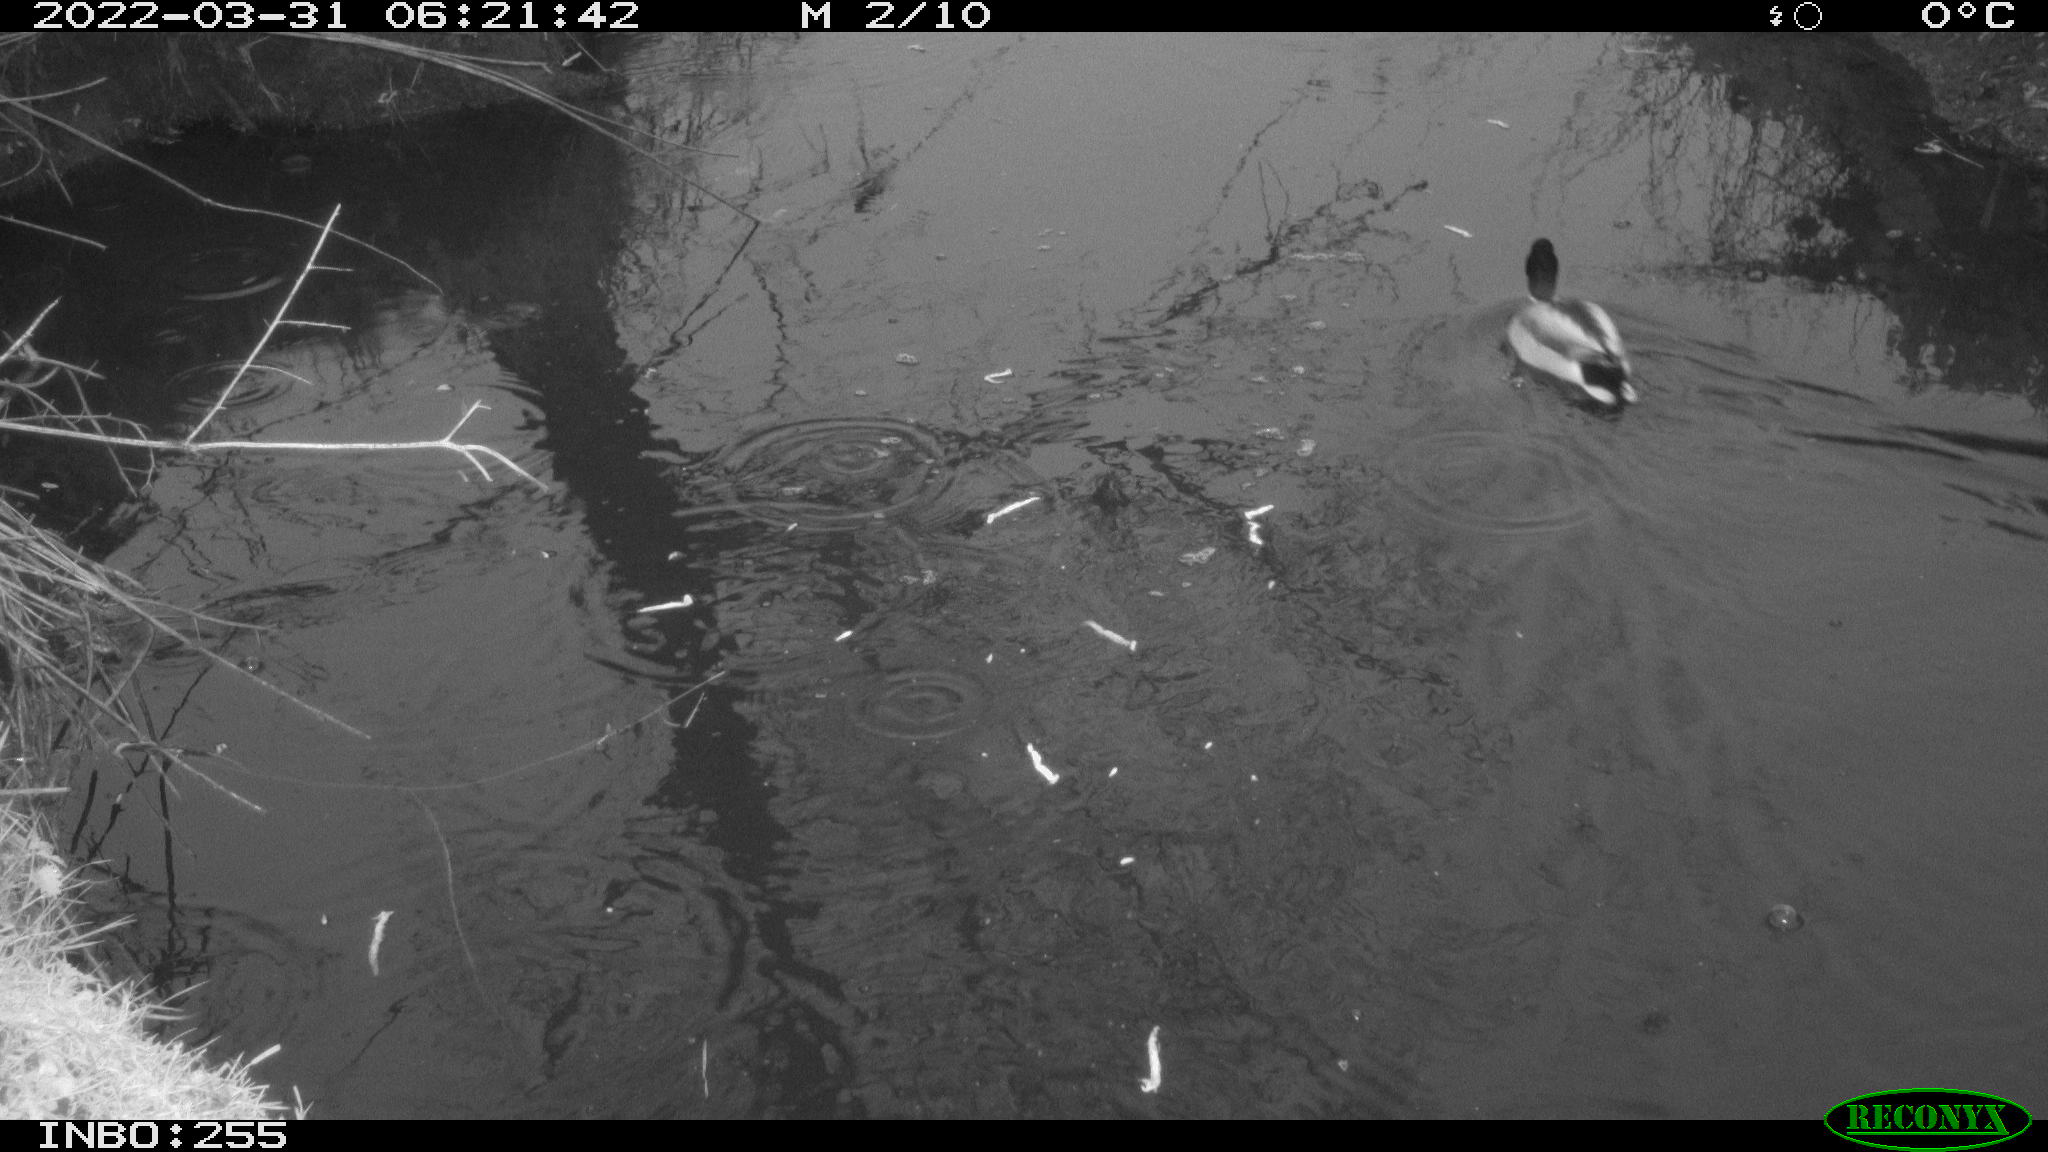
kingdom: Animalia
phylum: Chordata
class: Aves
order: Anseriformes
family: Anatidae
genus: Anas
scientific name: Anas platyrhynchos
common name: Mallard
